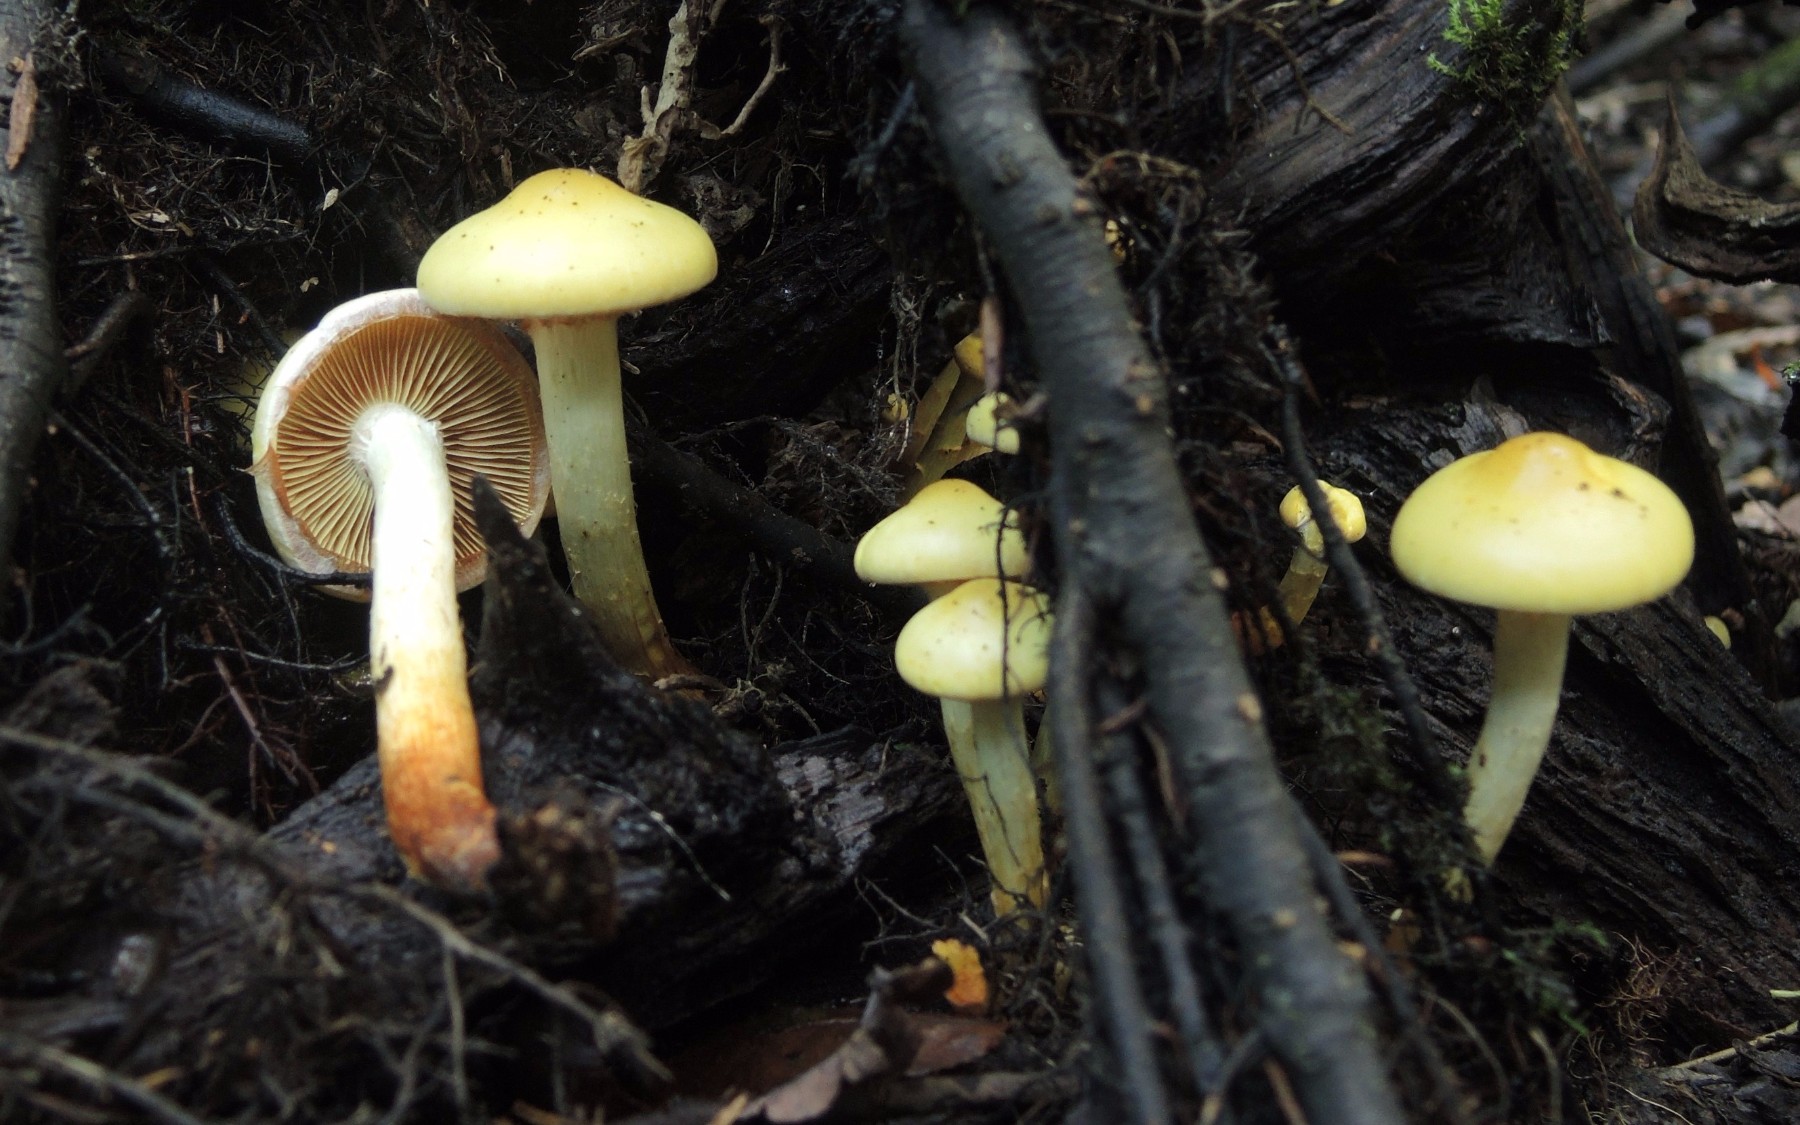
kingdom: Fungi
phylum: Basidiomycota
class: Agaricomycetes
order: Agaricales
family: Hymenogastraceae
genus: Flammula
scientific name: Flammula alnicola
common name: elle-skælhat
